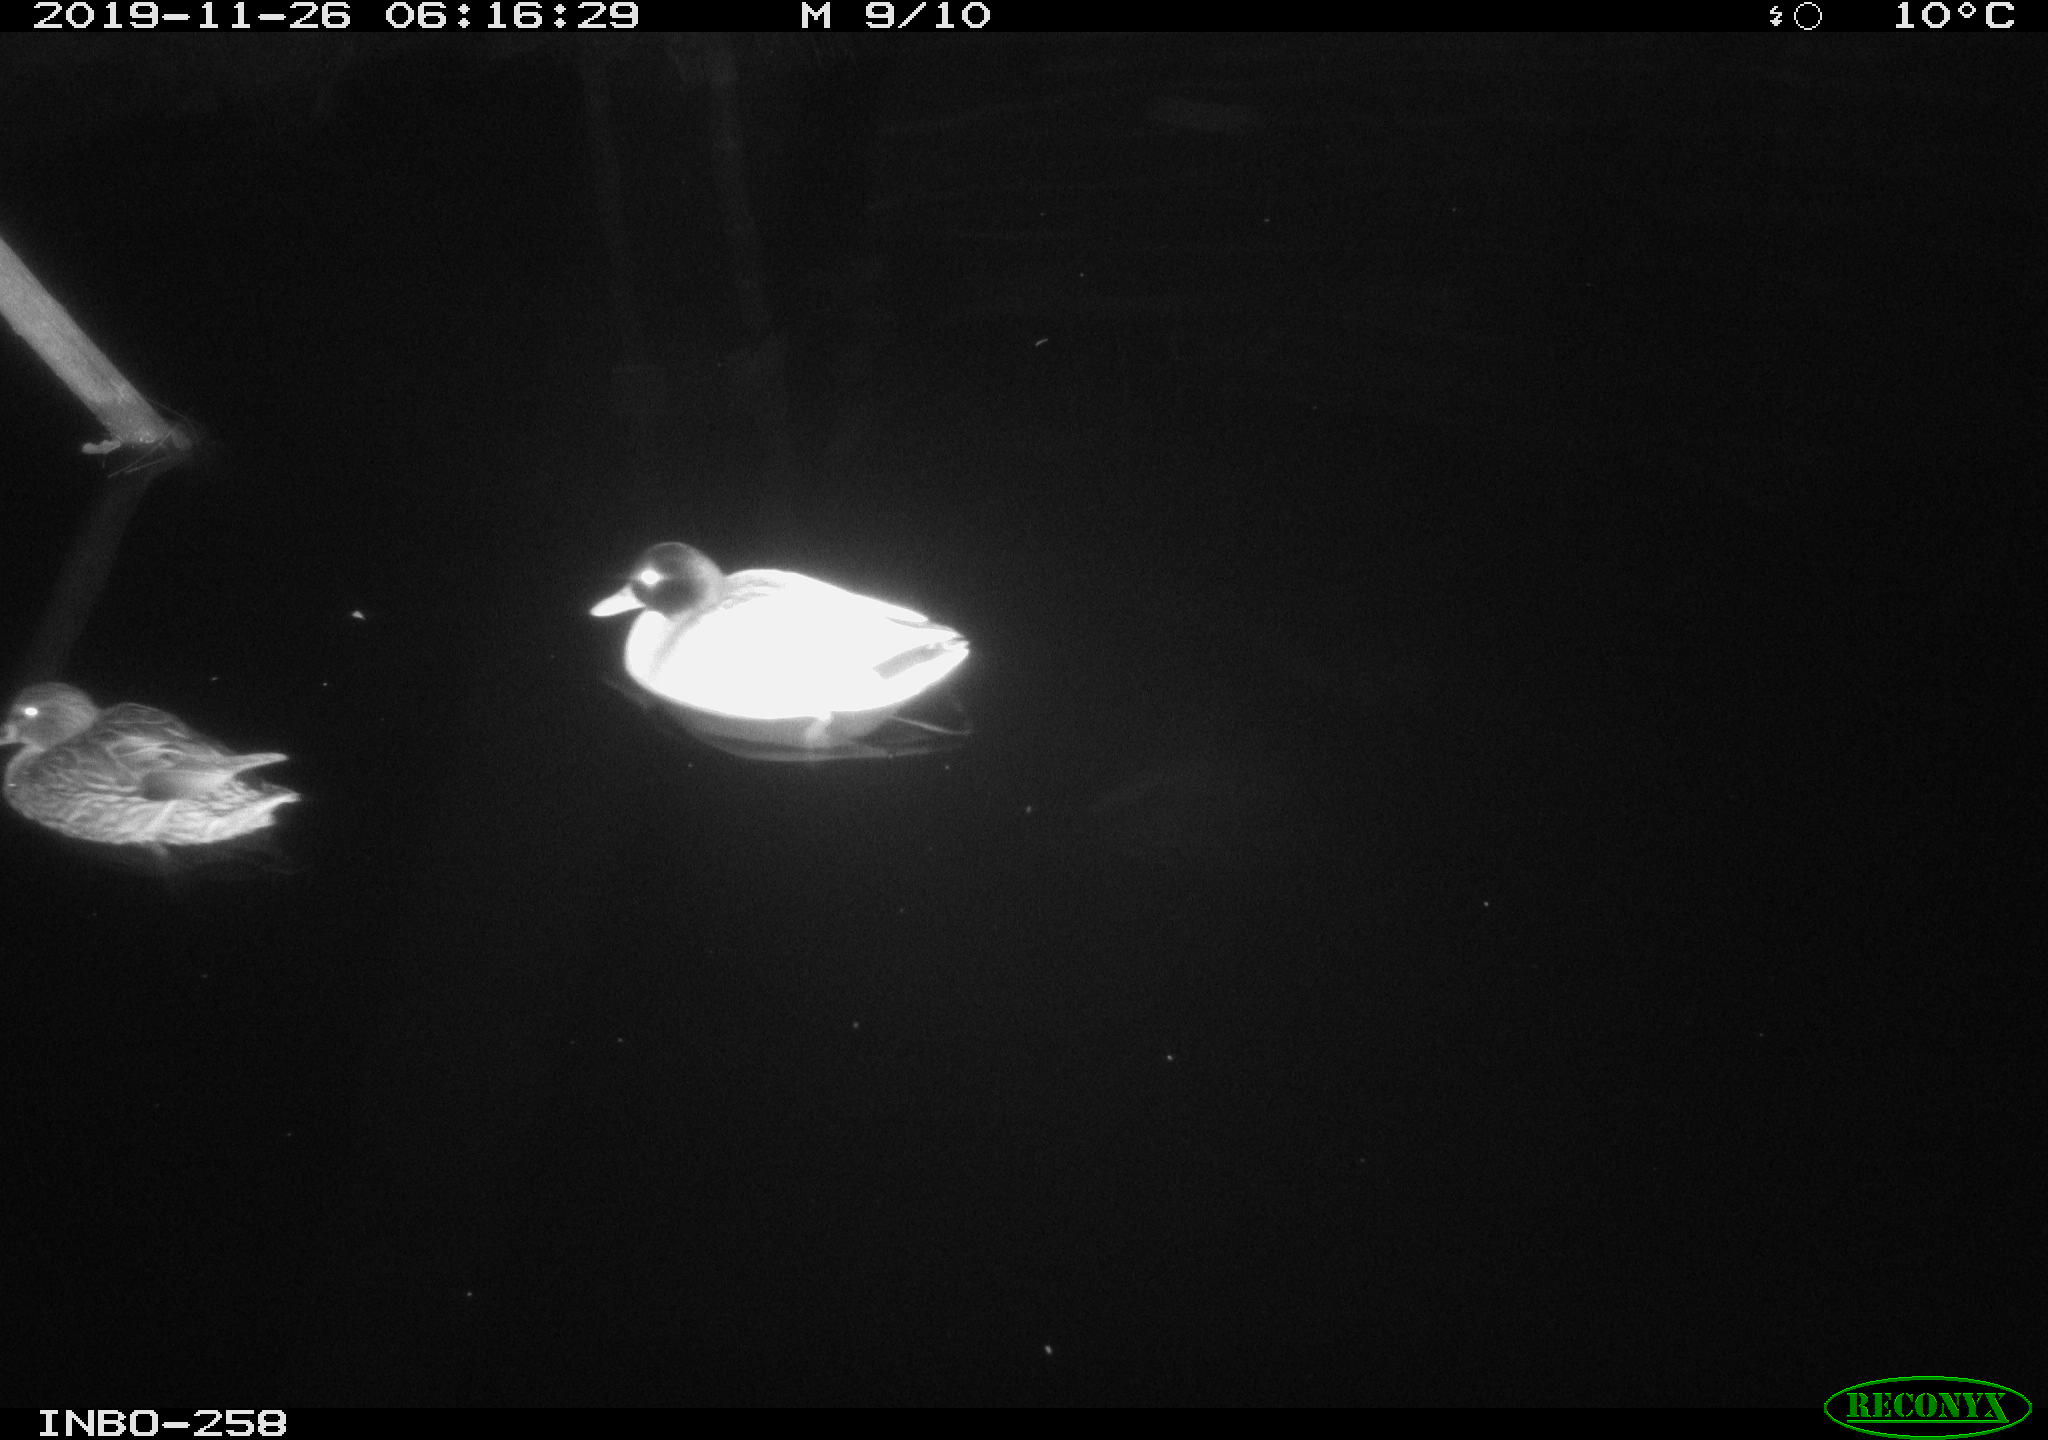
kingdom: Animalia
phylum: Chordata
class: Aves
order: Anseriformes
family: Anatidae
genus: Anas
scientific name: Anas platyrhynchos
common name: Mallard
